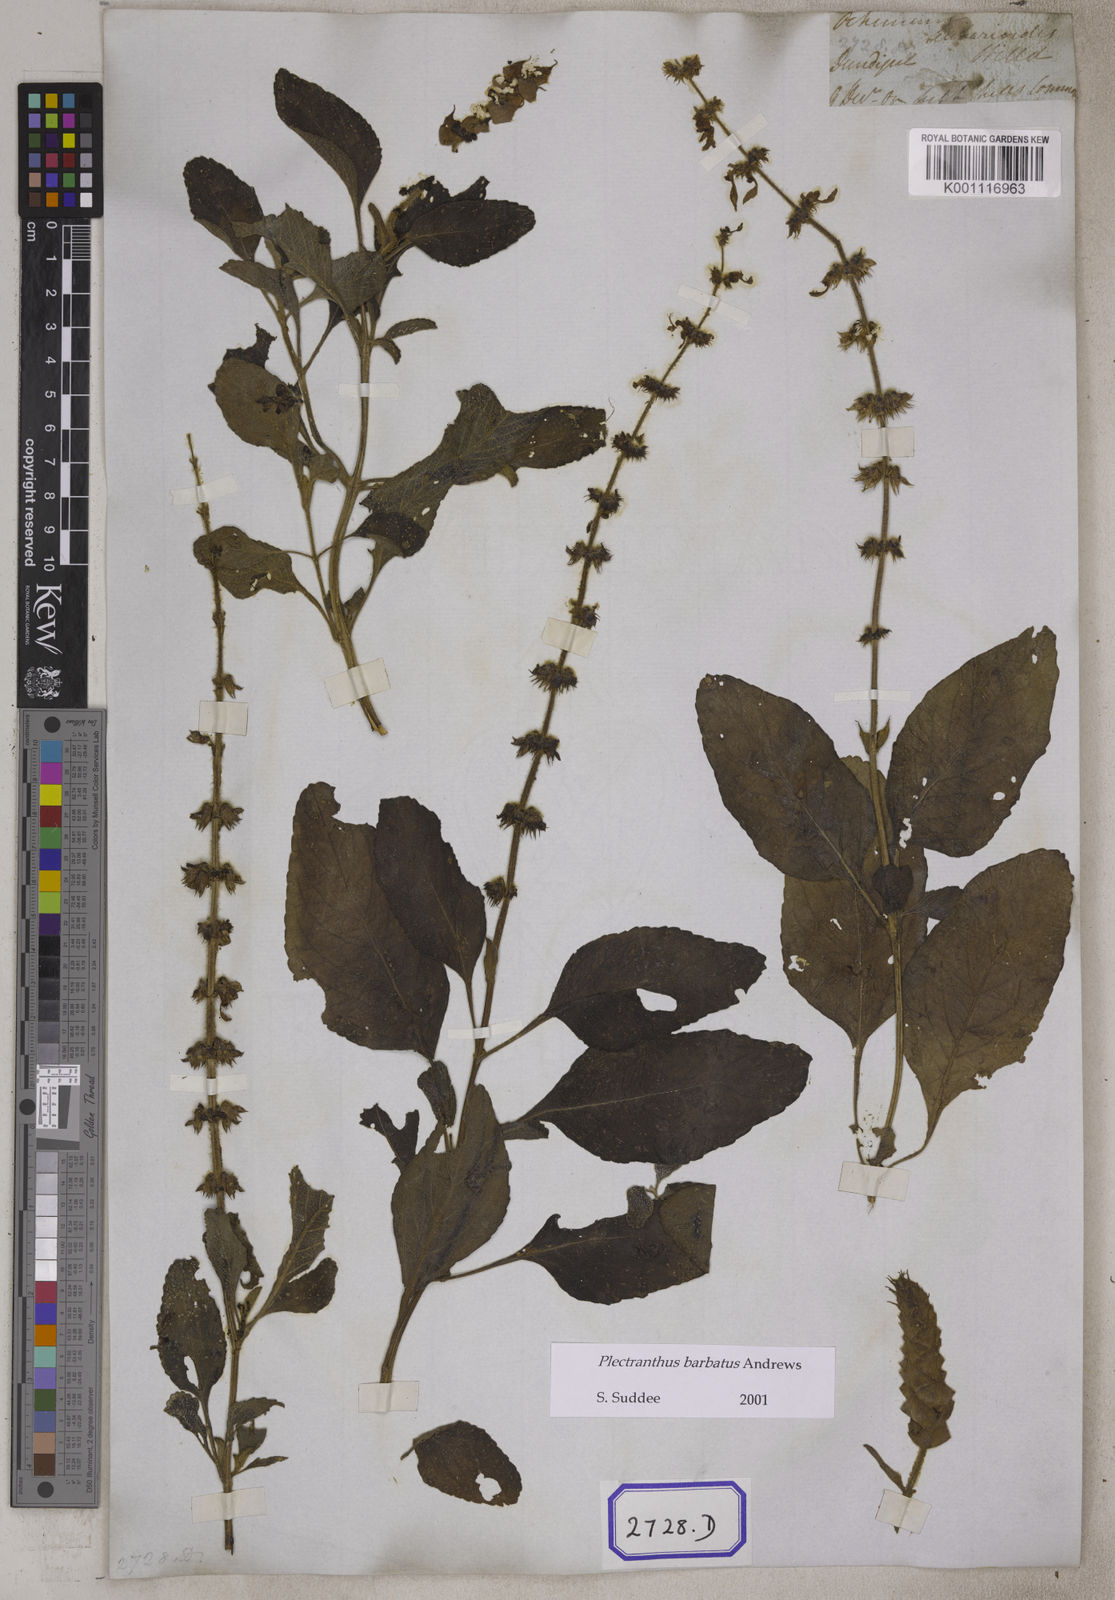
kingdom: Plantae
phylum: Tracheophyta
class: Magnoliopsida
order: Lamiales
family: Lamiaceae
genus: Coleus
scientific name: Coleus
